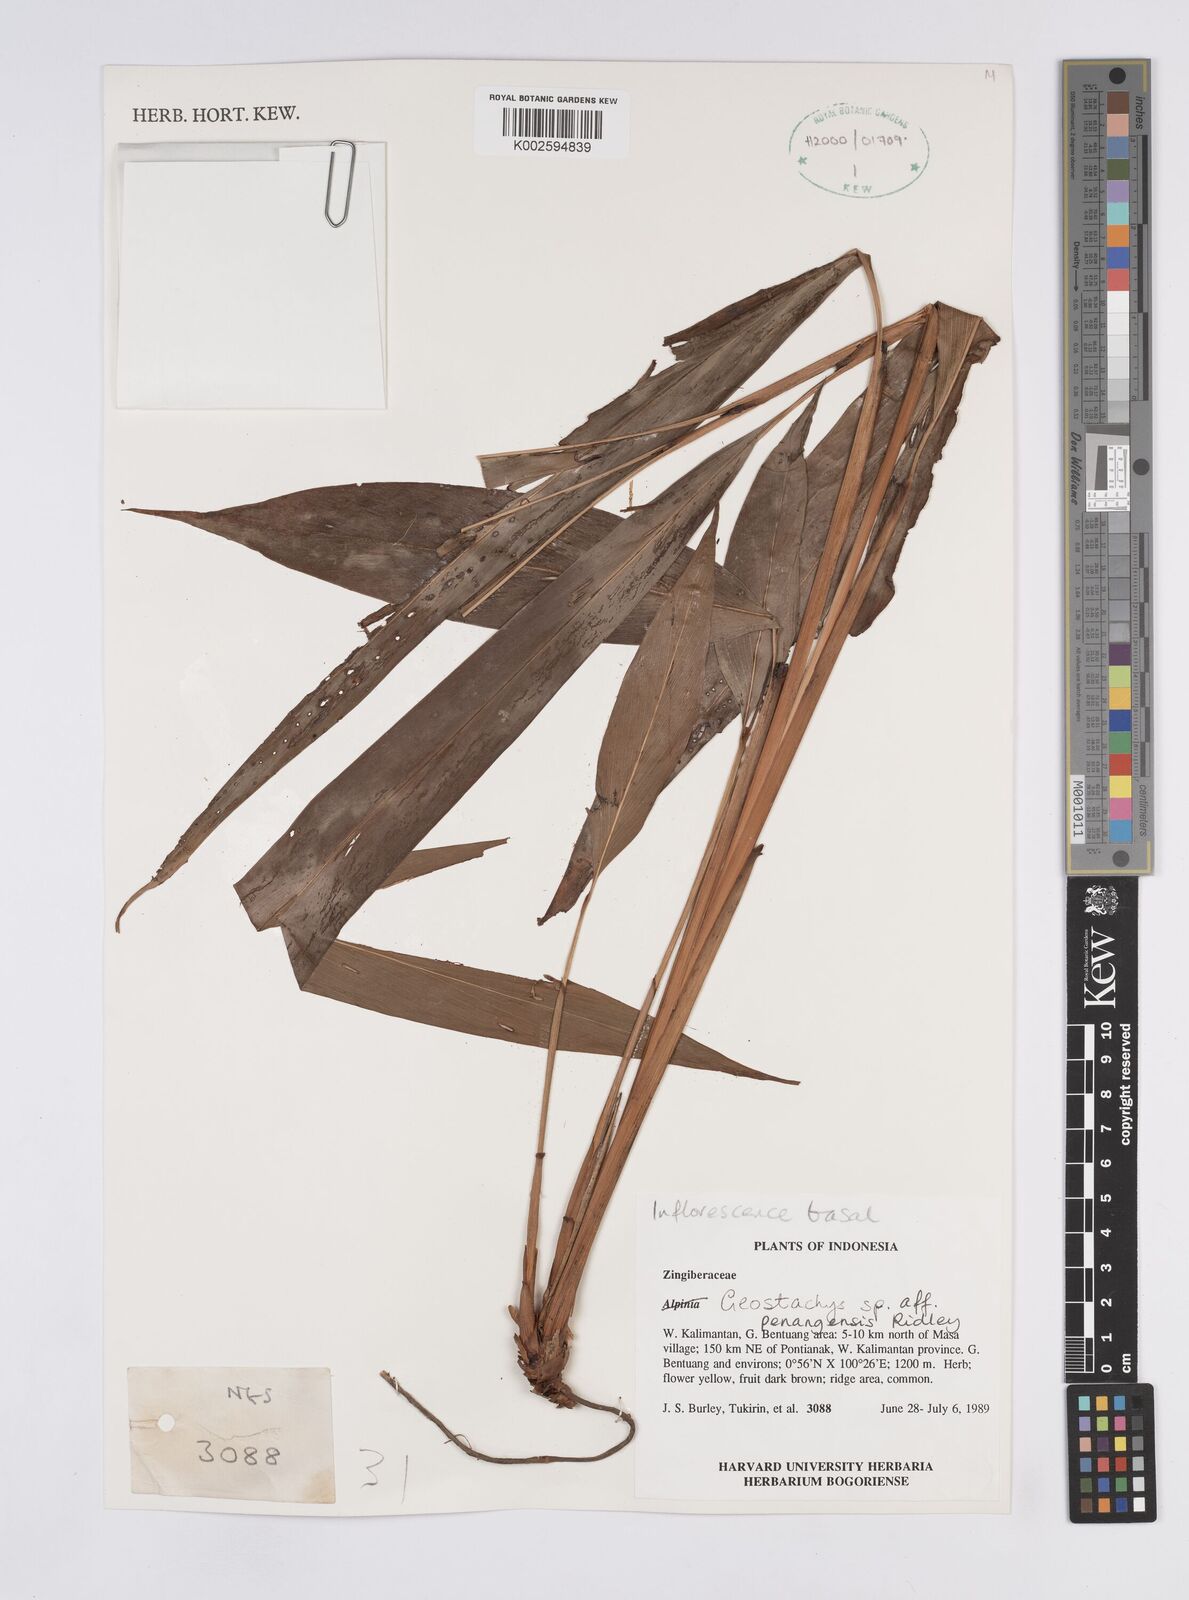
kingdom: Plantae
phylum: Tracheophyta
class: Liliopsida
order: Zingiberales
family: Zingiberaceae
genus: Geostachys
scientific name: Geostachys penangensis
